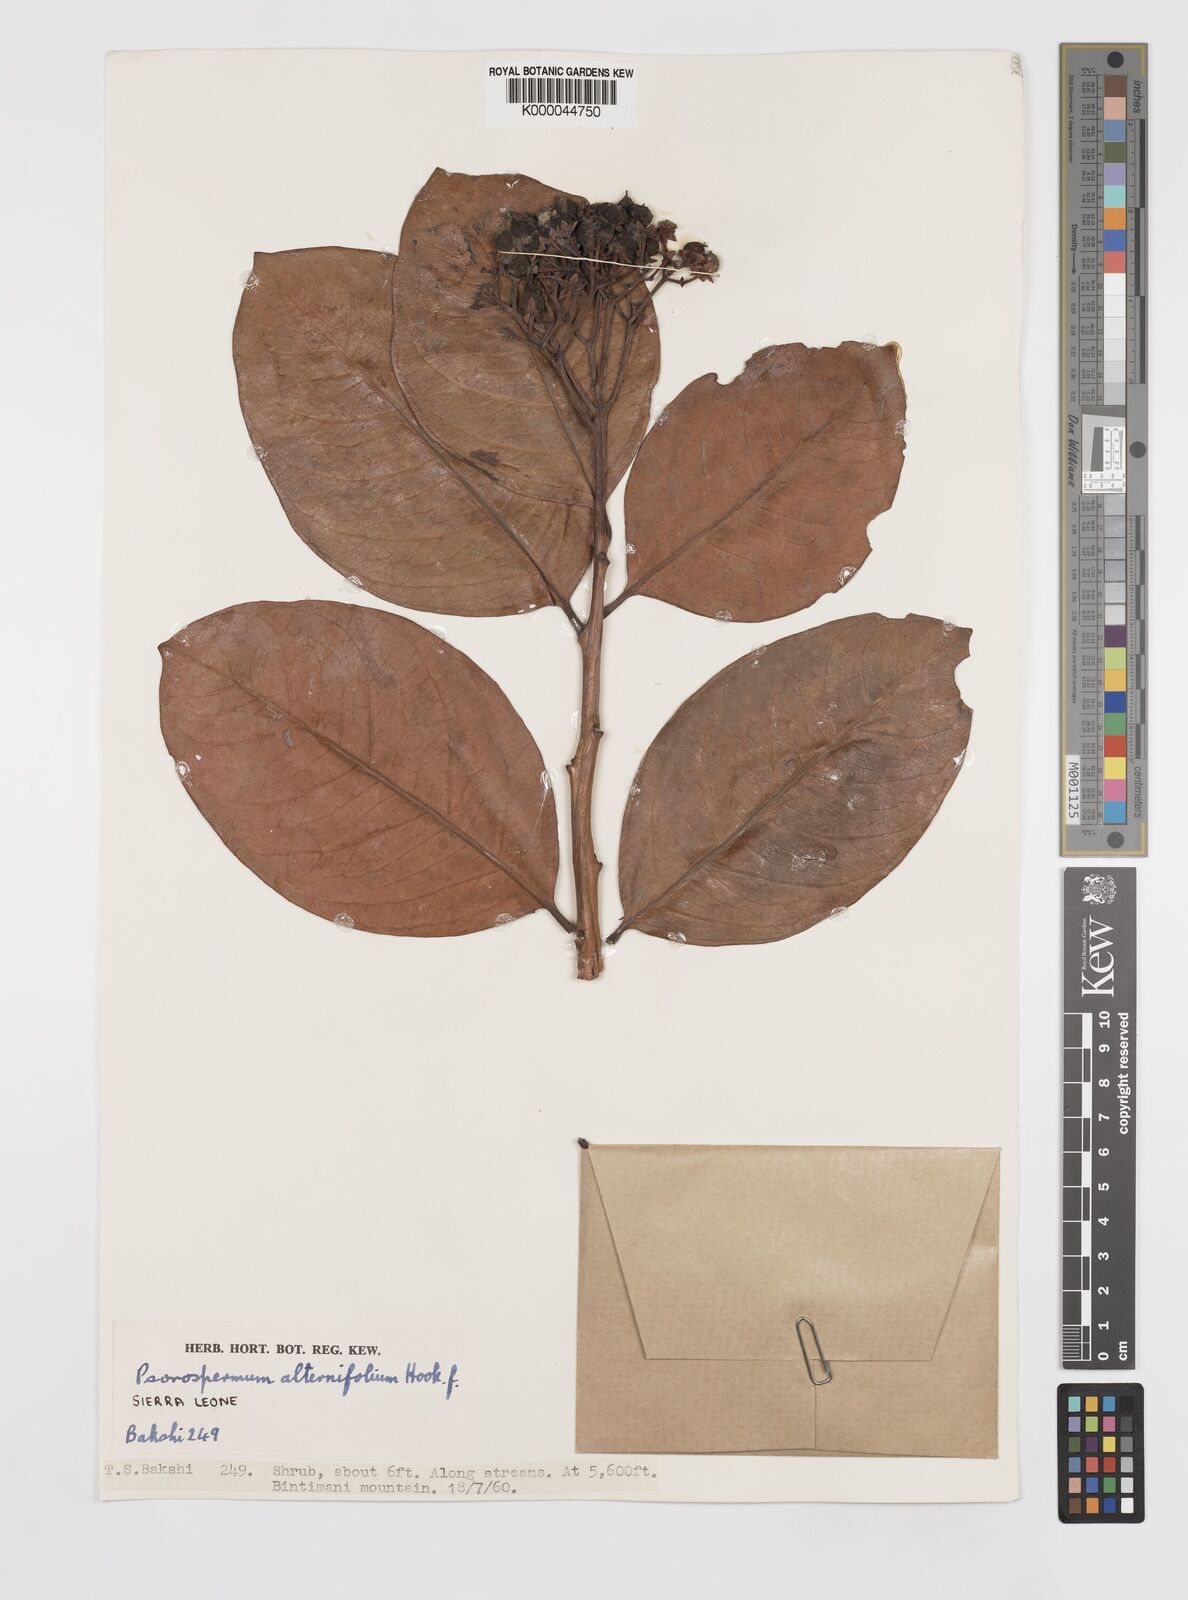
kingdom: Plantae
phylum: Tracheophyta
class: Magnoliopsida
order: Malpighiales
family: Hypericaceae
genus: Psorospermum
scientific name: Psorospermum alternifolium
